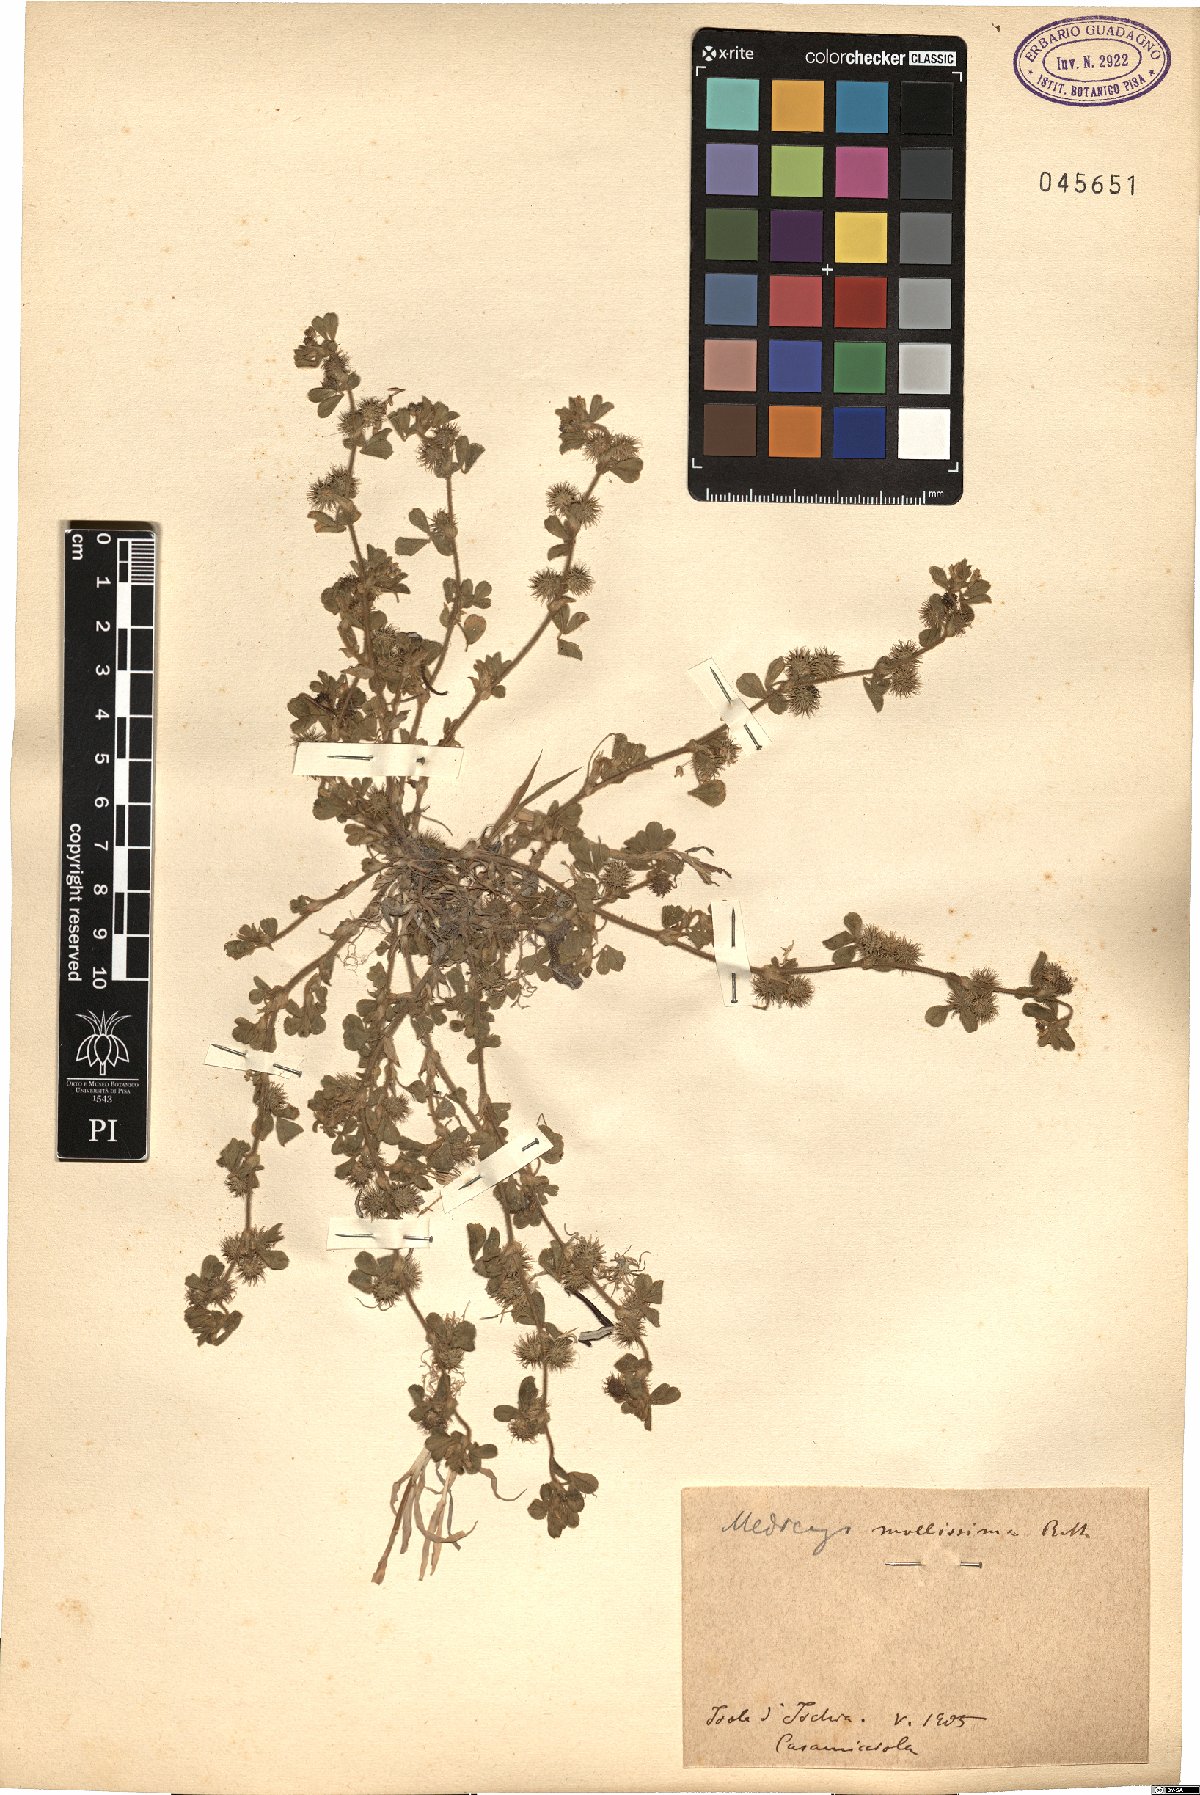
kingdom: Plantae
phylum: Tracheophyta
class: Magnoliopsida
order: Fabales
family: Fabaceae
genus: Medicago
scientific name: Medicago minima
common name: Little bur-clover
